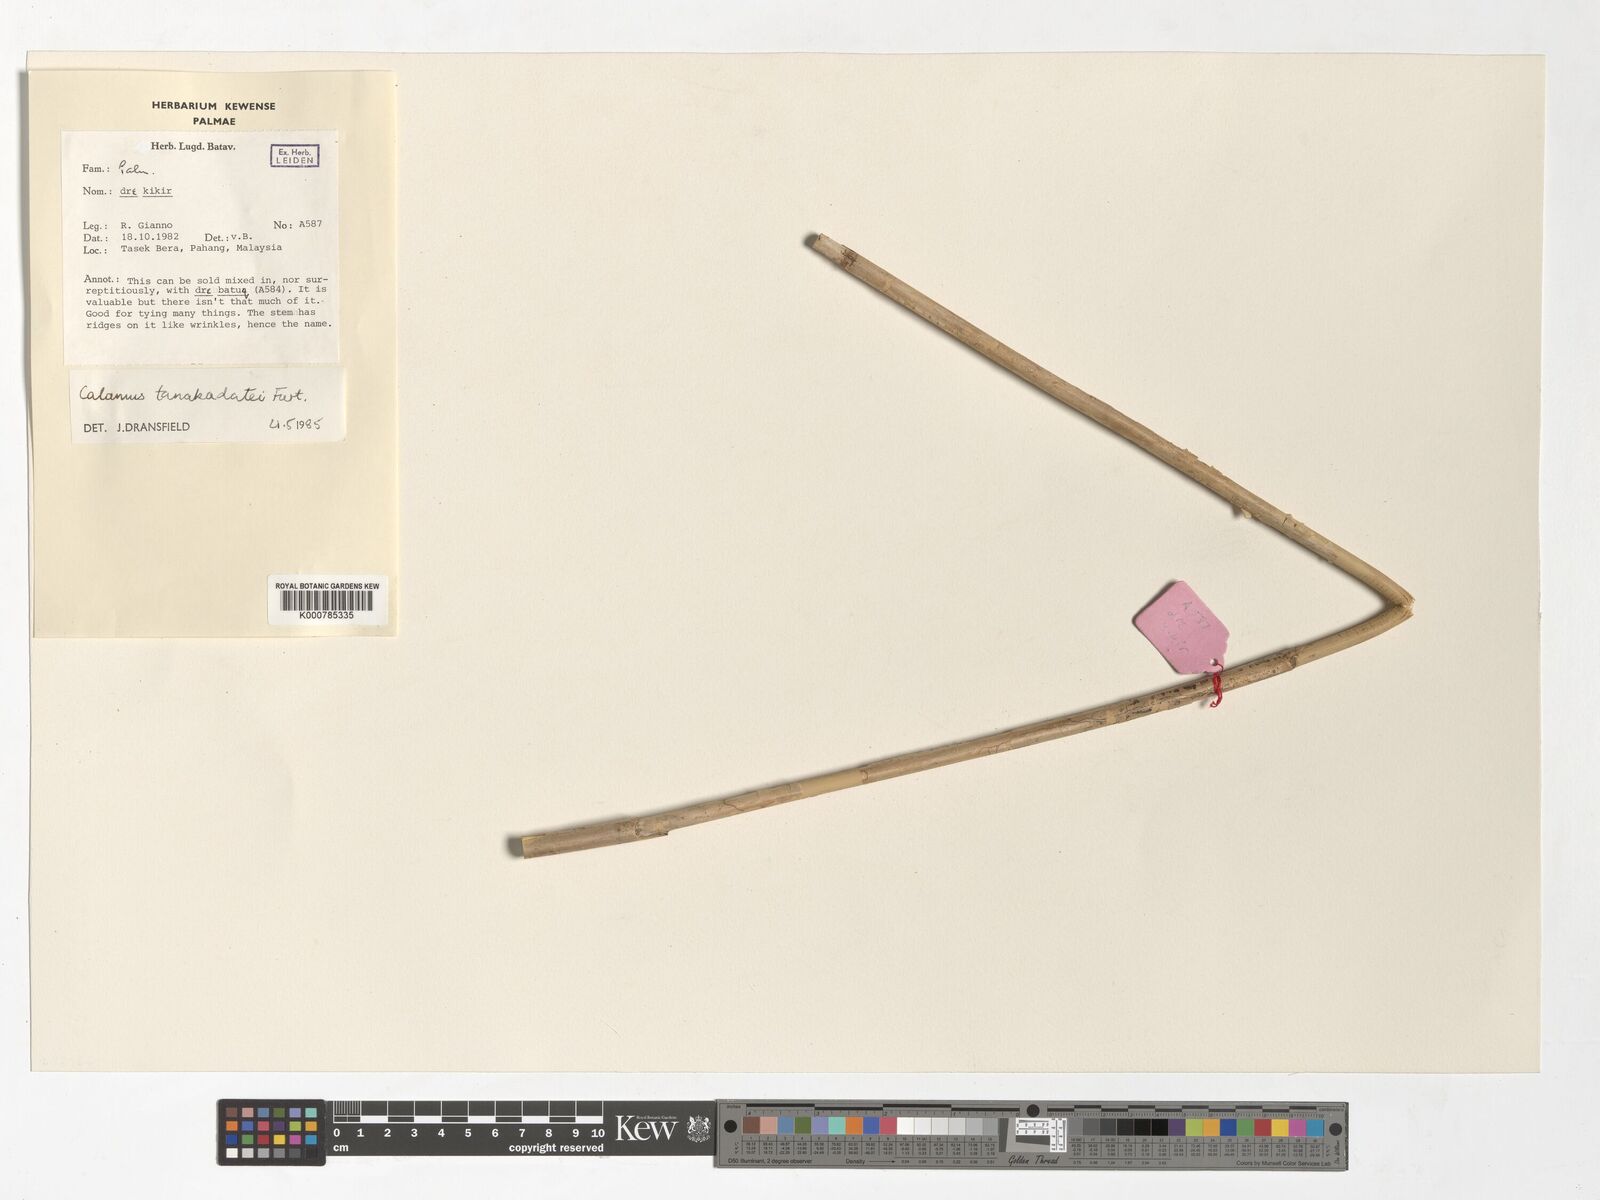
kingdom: Plantae
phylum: Tracheophyta
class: Liliopsida
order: Arecales
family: Arecaceae
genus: Calamus
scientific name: Calamus ruvidus
